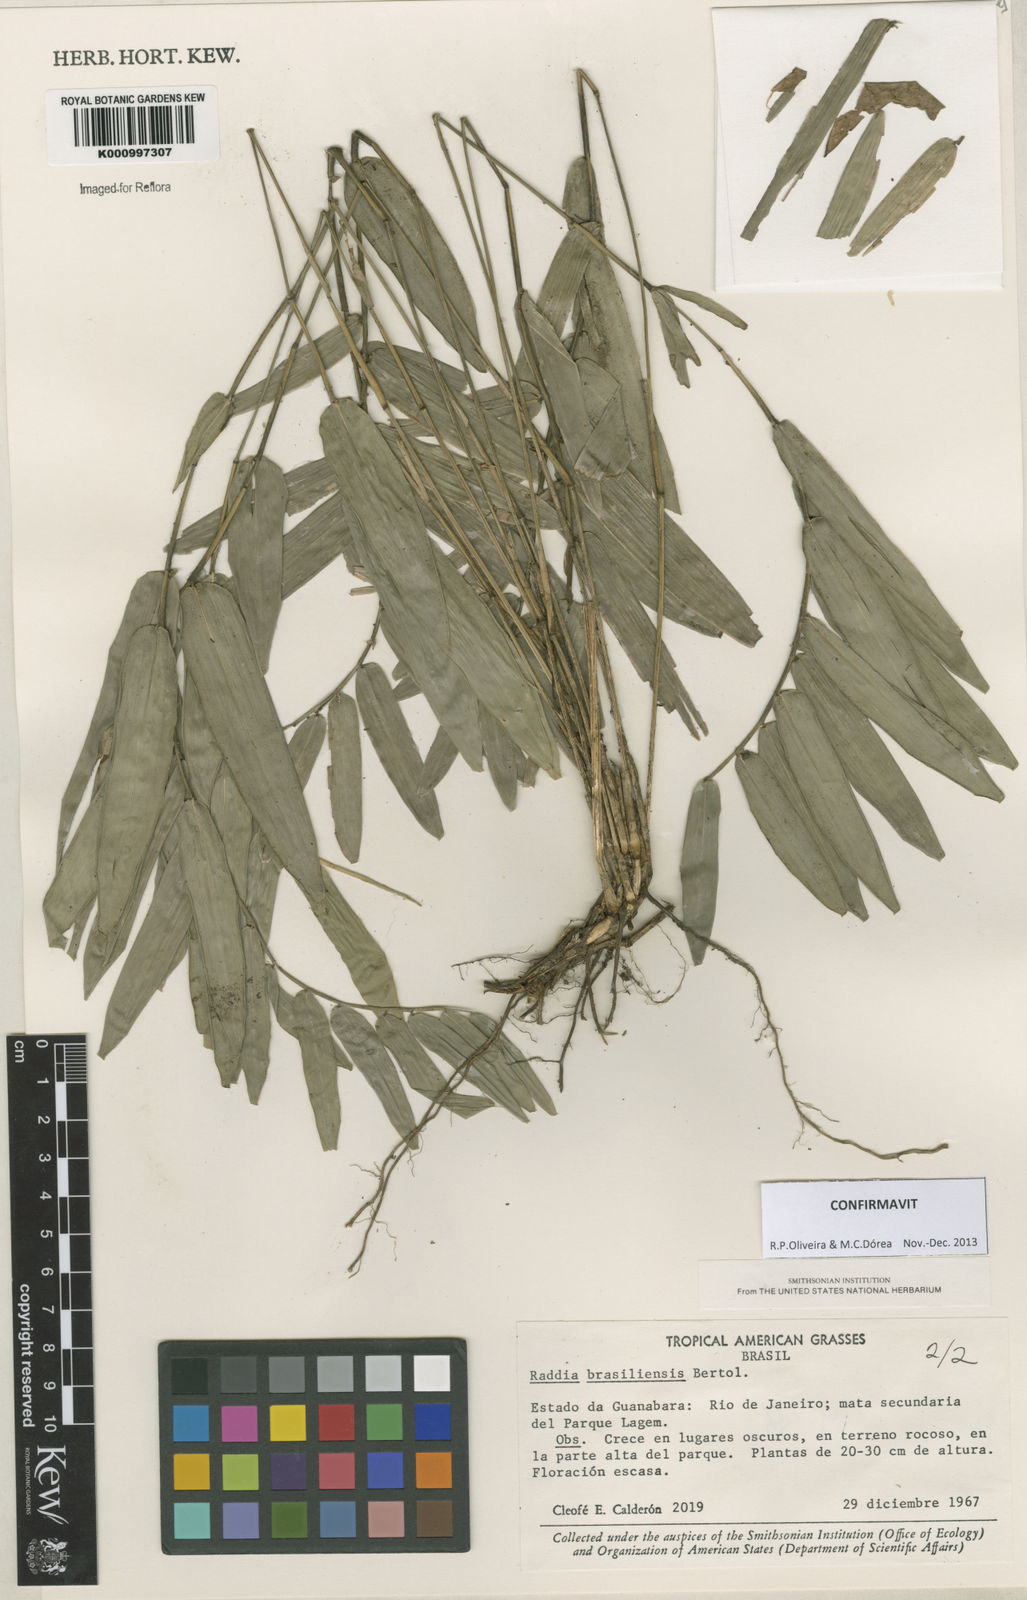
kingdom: Plantae
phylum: Tracheophyta
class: Liliopsida
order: Poales
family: Poaceae
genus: Raddia
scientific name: Raddia brasiliensis
